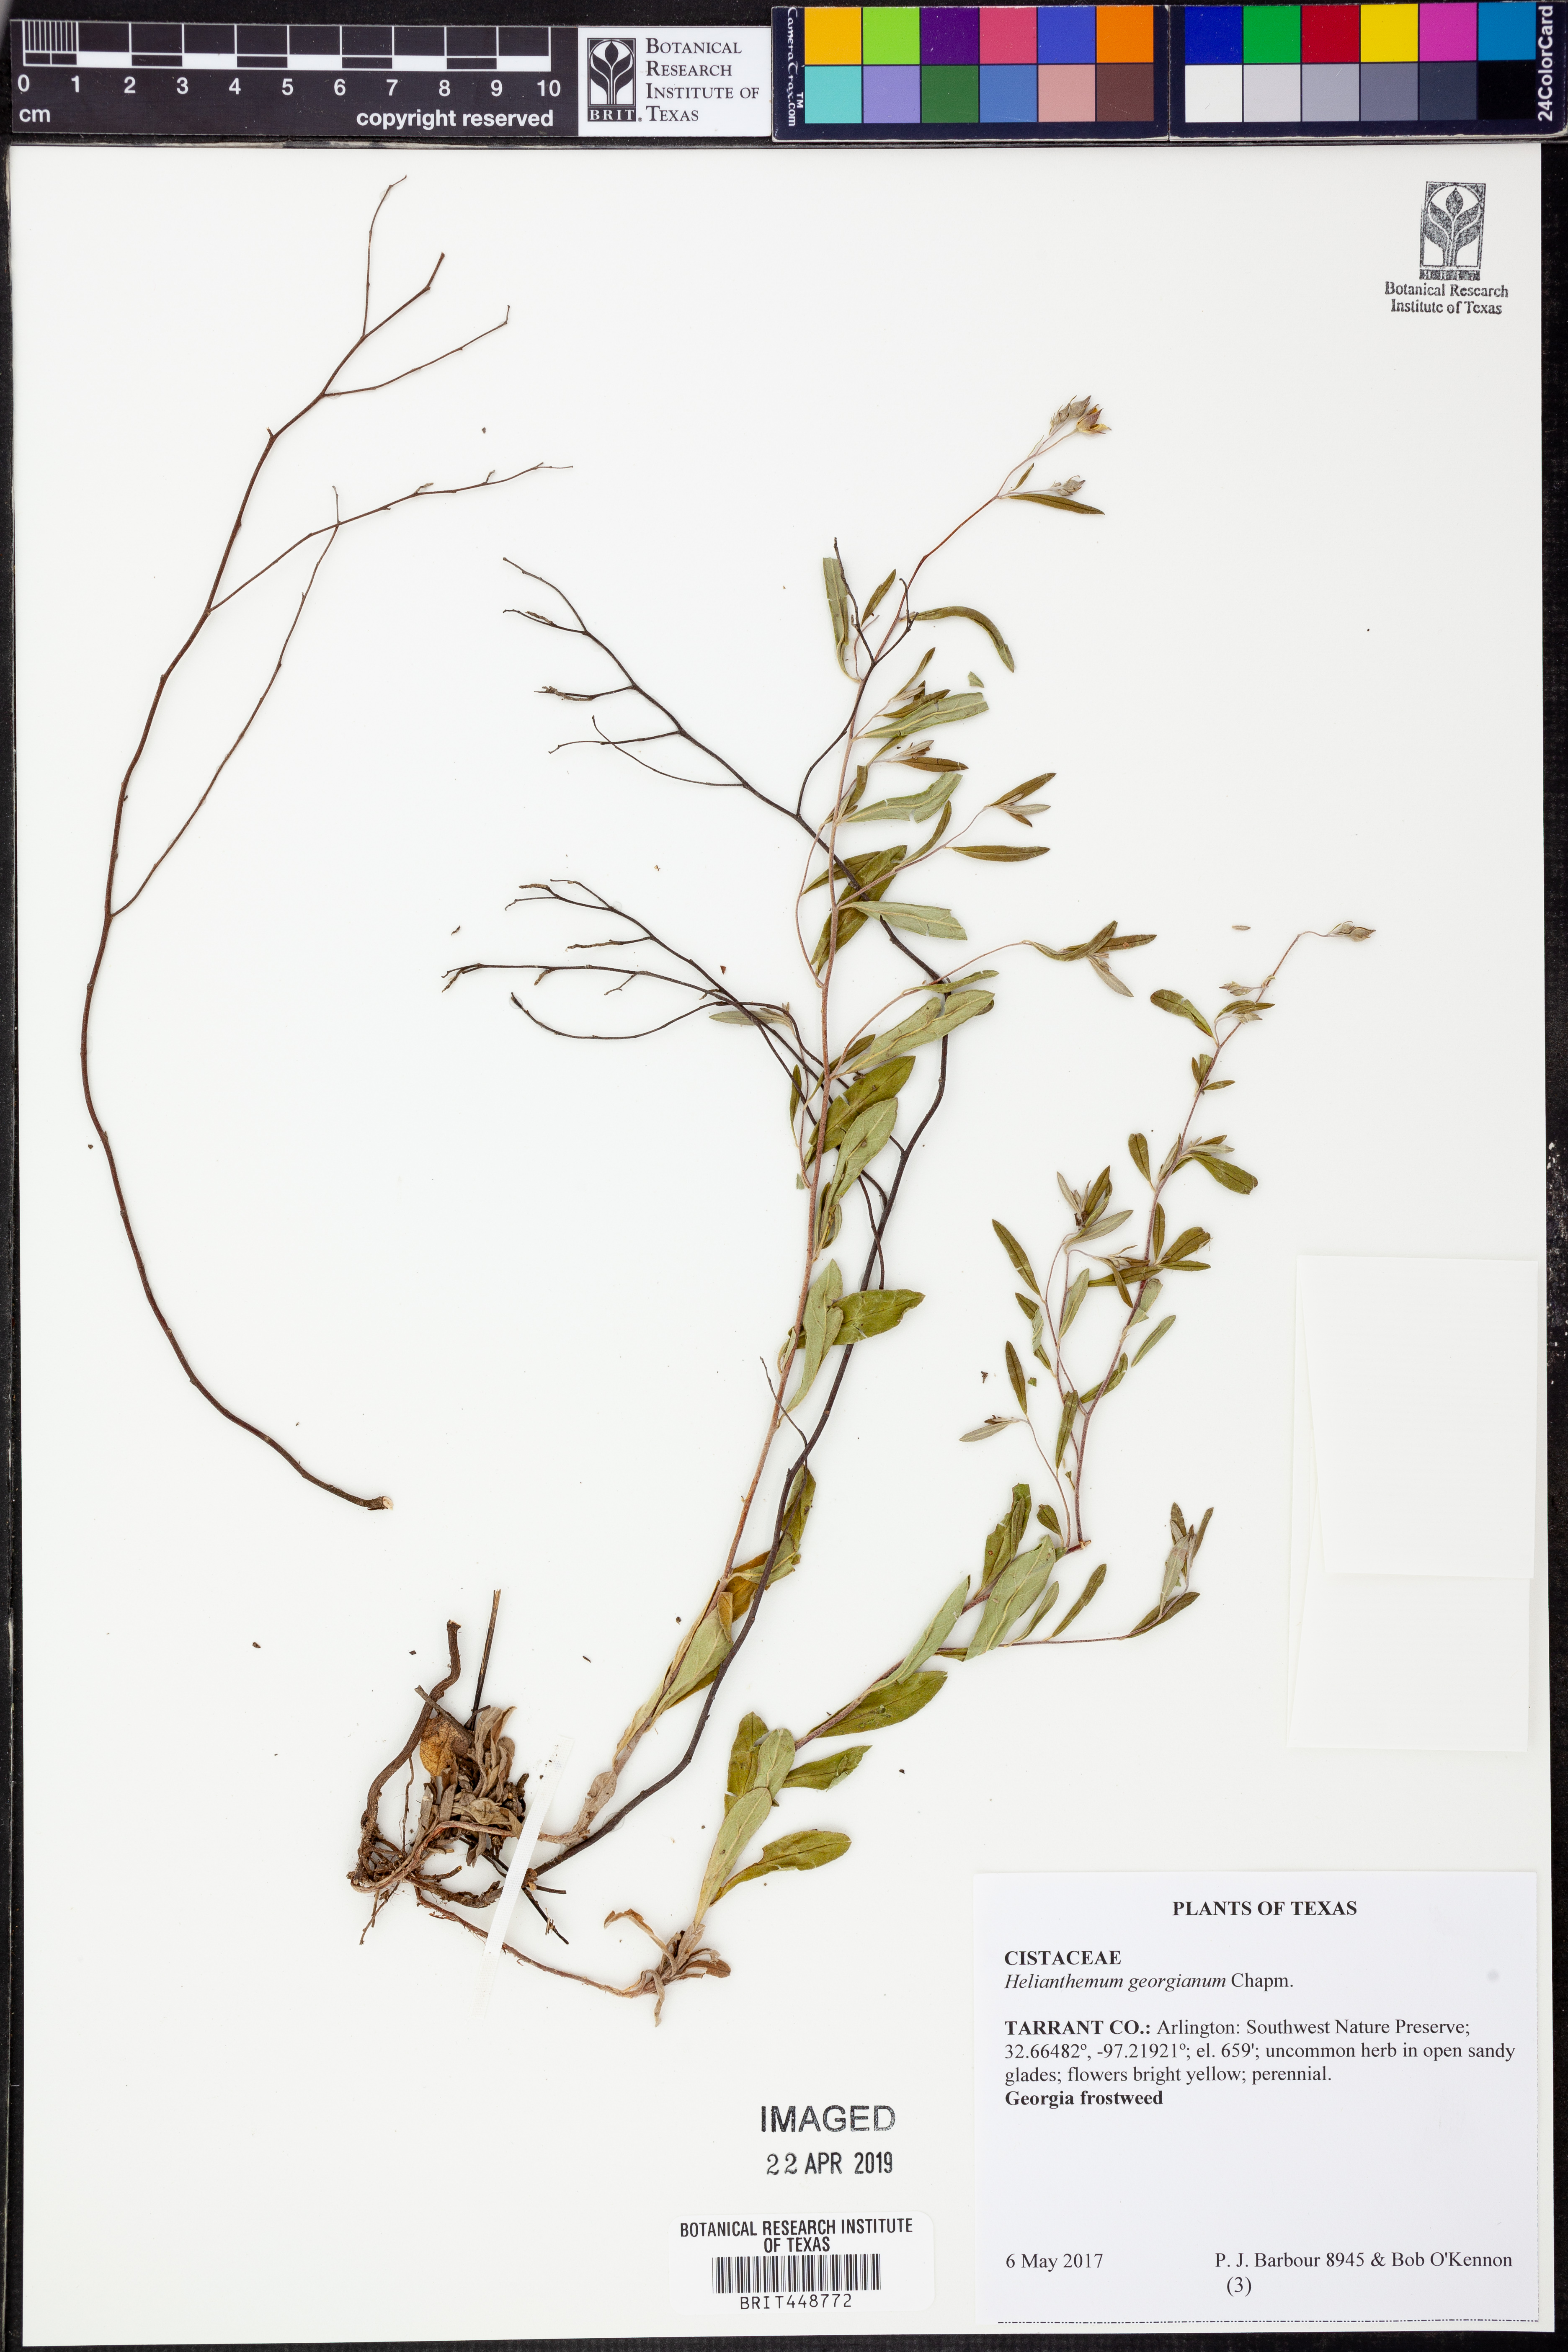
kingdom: Plantae
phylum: Tracheophyta
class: Magnoliopsida
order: Malvales
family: Cistaceae
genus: Crocanthemum
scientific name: Crocanthemum georgianum
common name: Georgia frostweed
